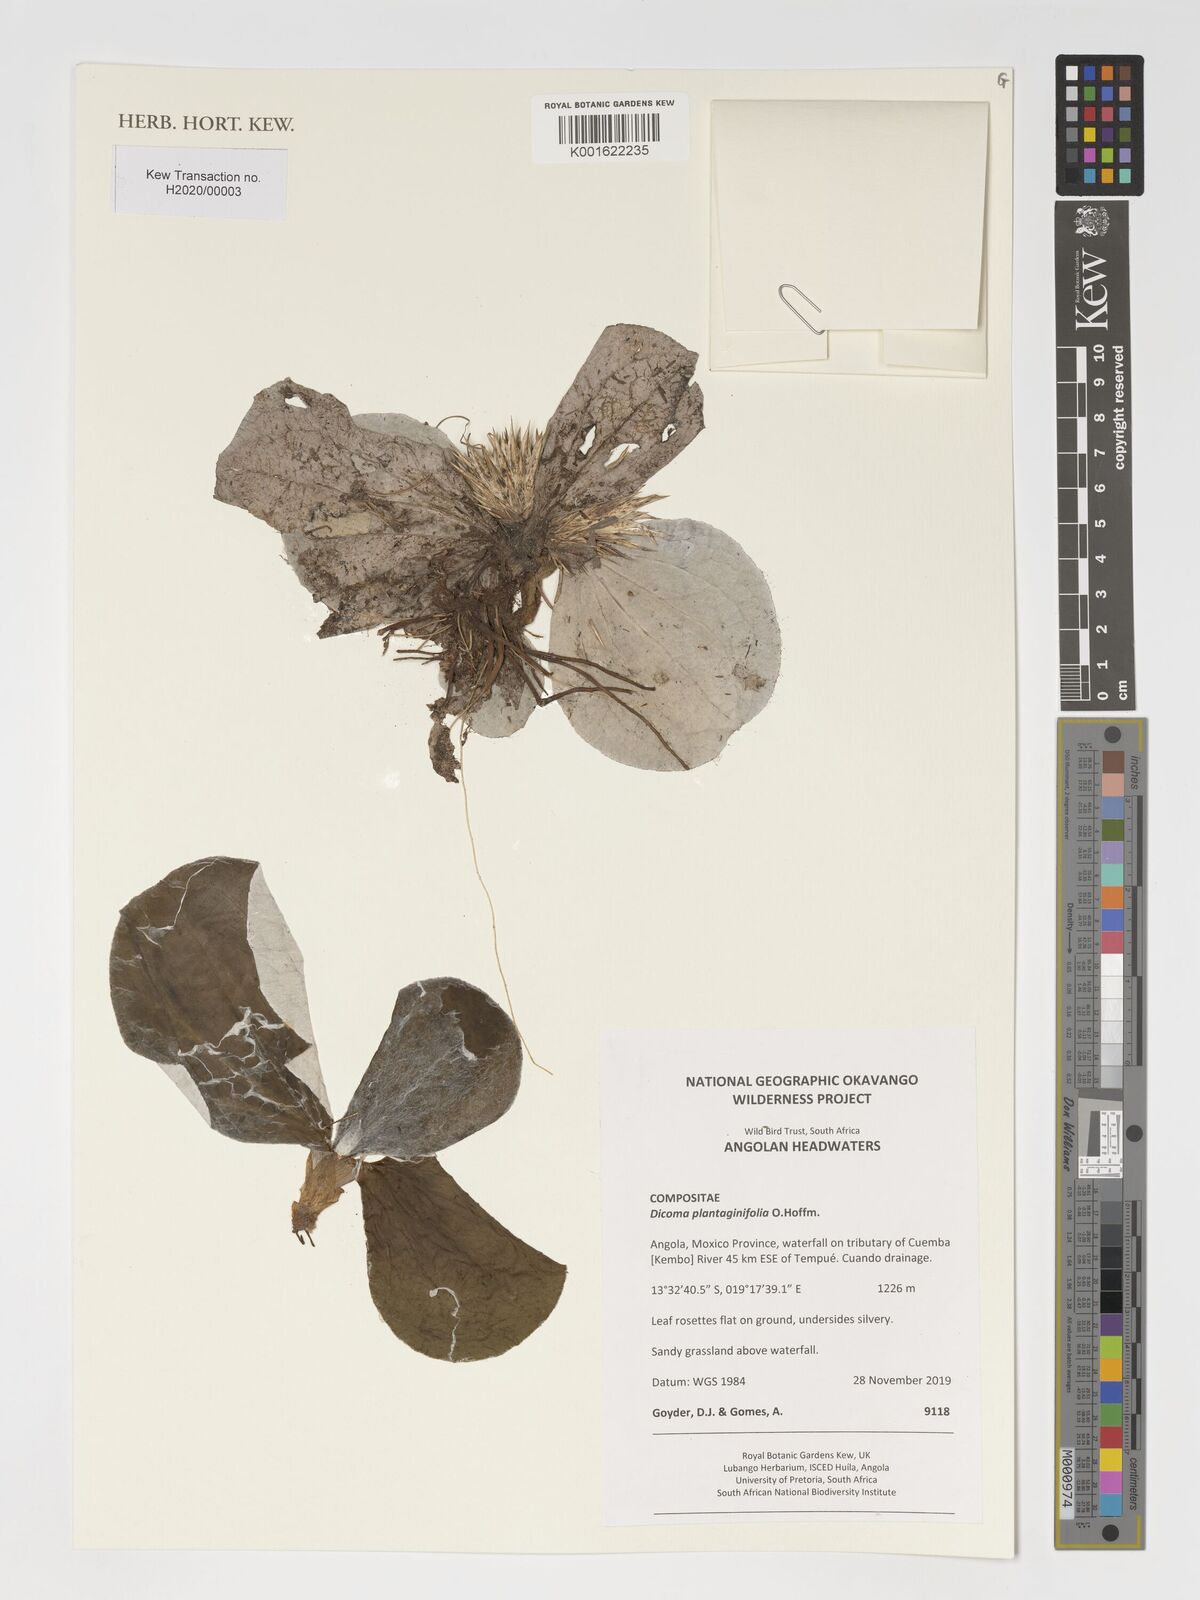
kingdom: Plantae
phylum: Tracheophyta
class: Magnoliopsida
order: Asterales
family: Asteraceae
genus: Macledium
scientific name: Macledium plantaginifolium
